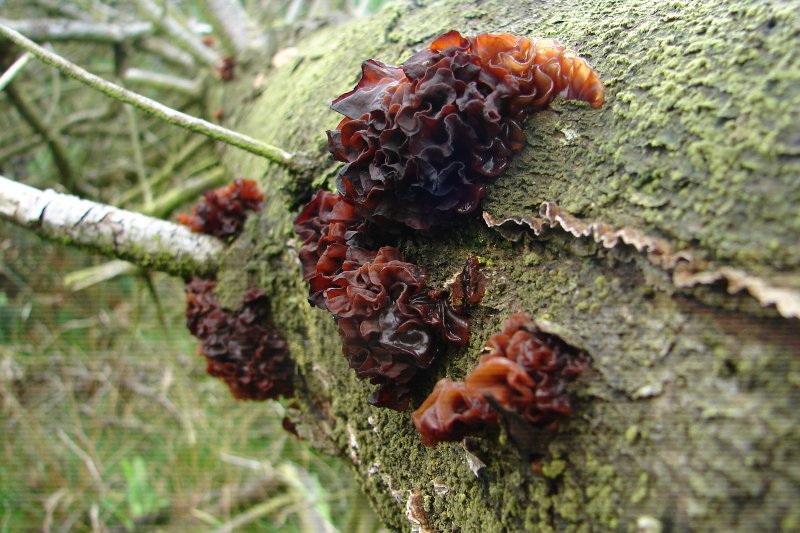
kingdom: Fungi
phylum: Basidiomycota
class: Tremellomycetes
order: Tremellales
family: Tremellaceae
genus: Phaeotremella
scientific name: Phaeotremella foliacea
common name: brun bævresvamp
